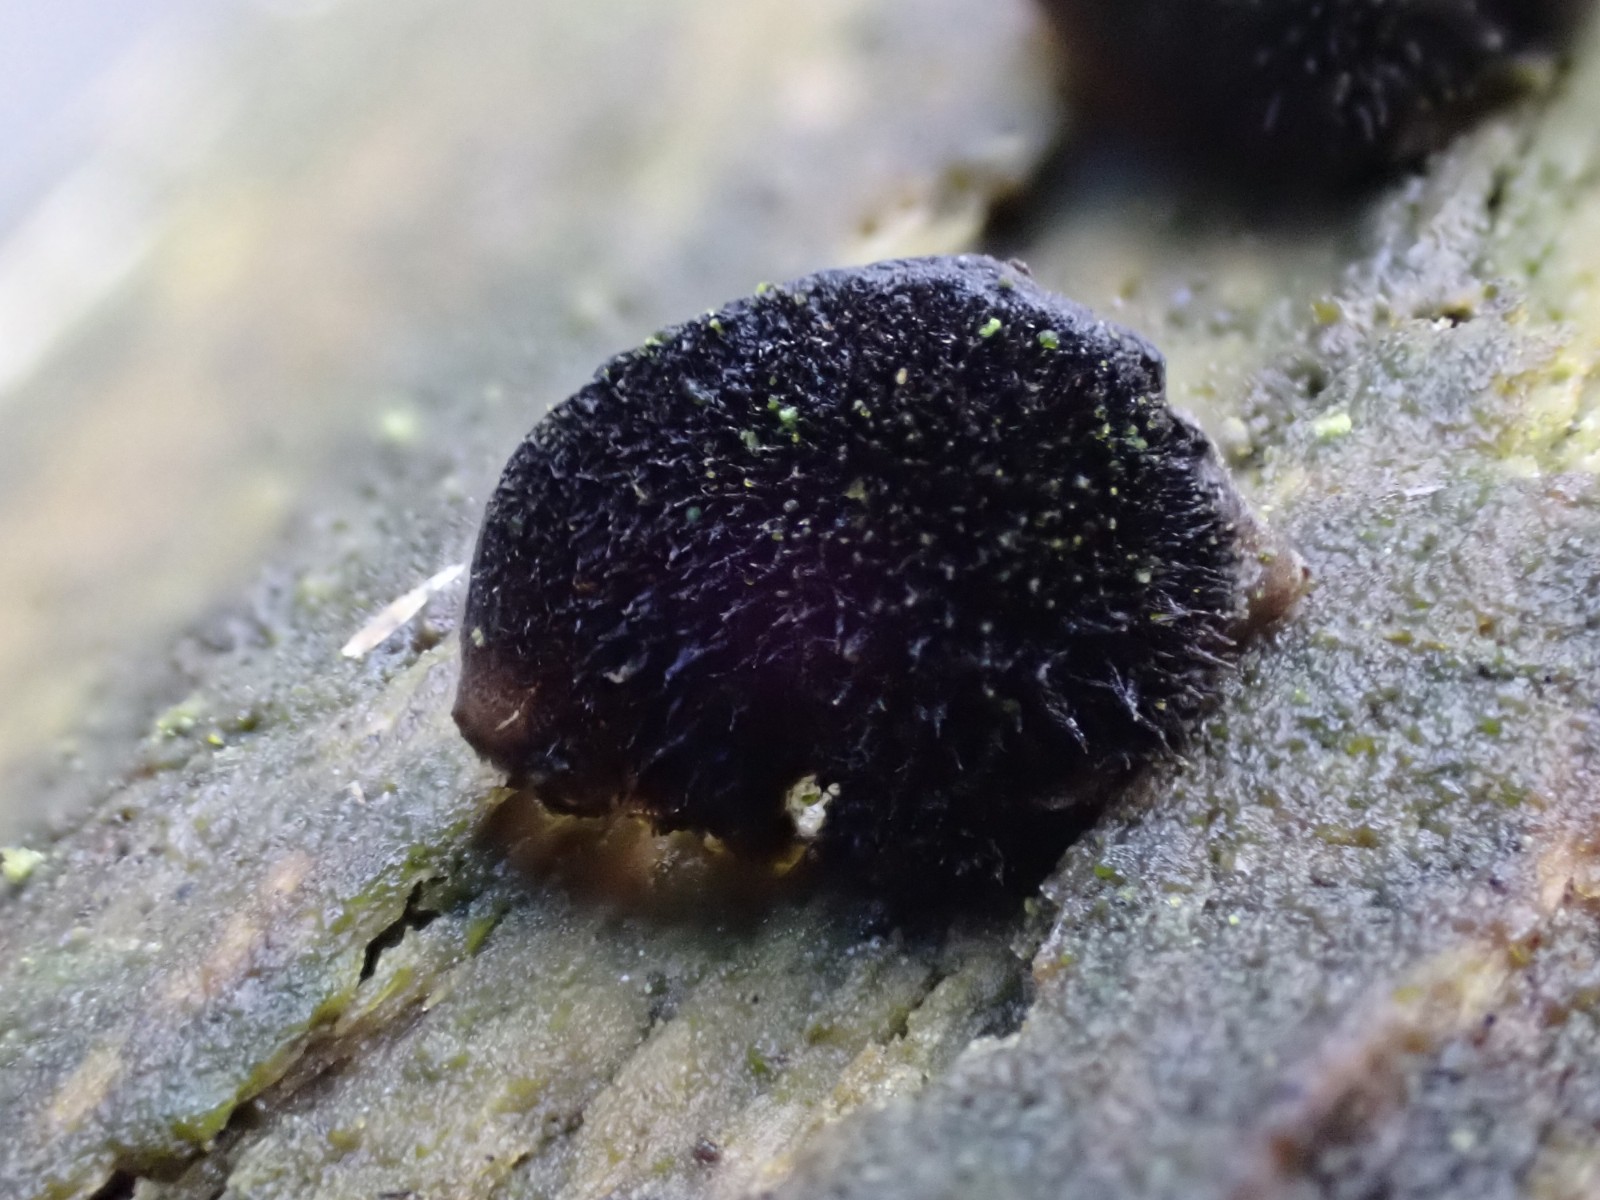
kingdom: Fungi
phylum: Basidiomycota
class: Agaricomycetes
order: Agaricales
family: Pleurotaceae
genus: Resupinatus
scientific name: Resupinatus trichotis
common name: mørkfiltet barkhat
